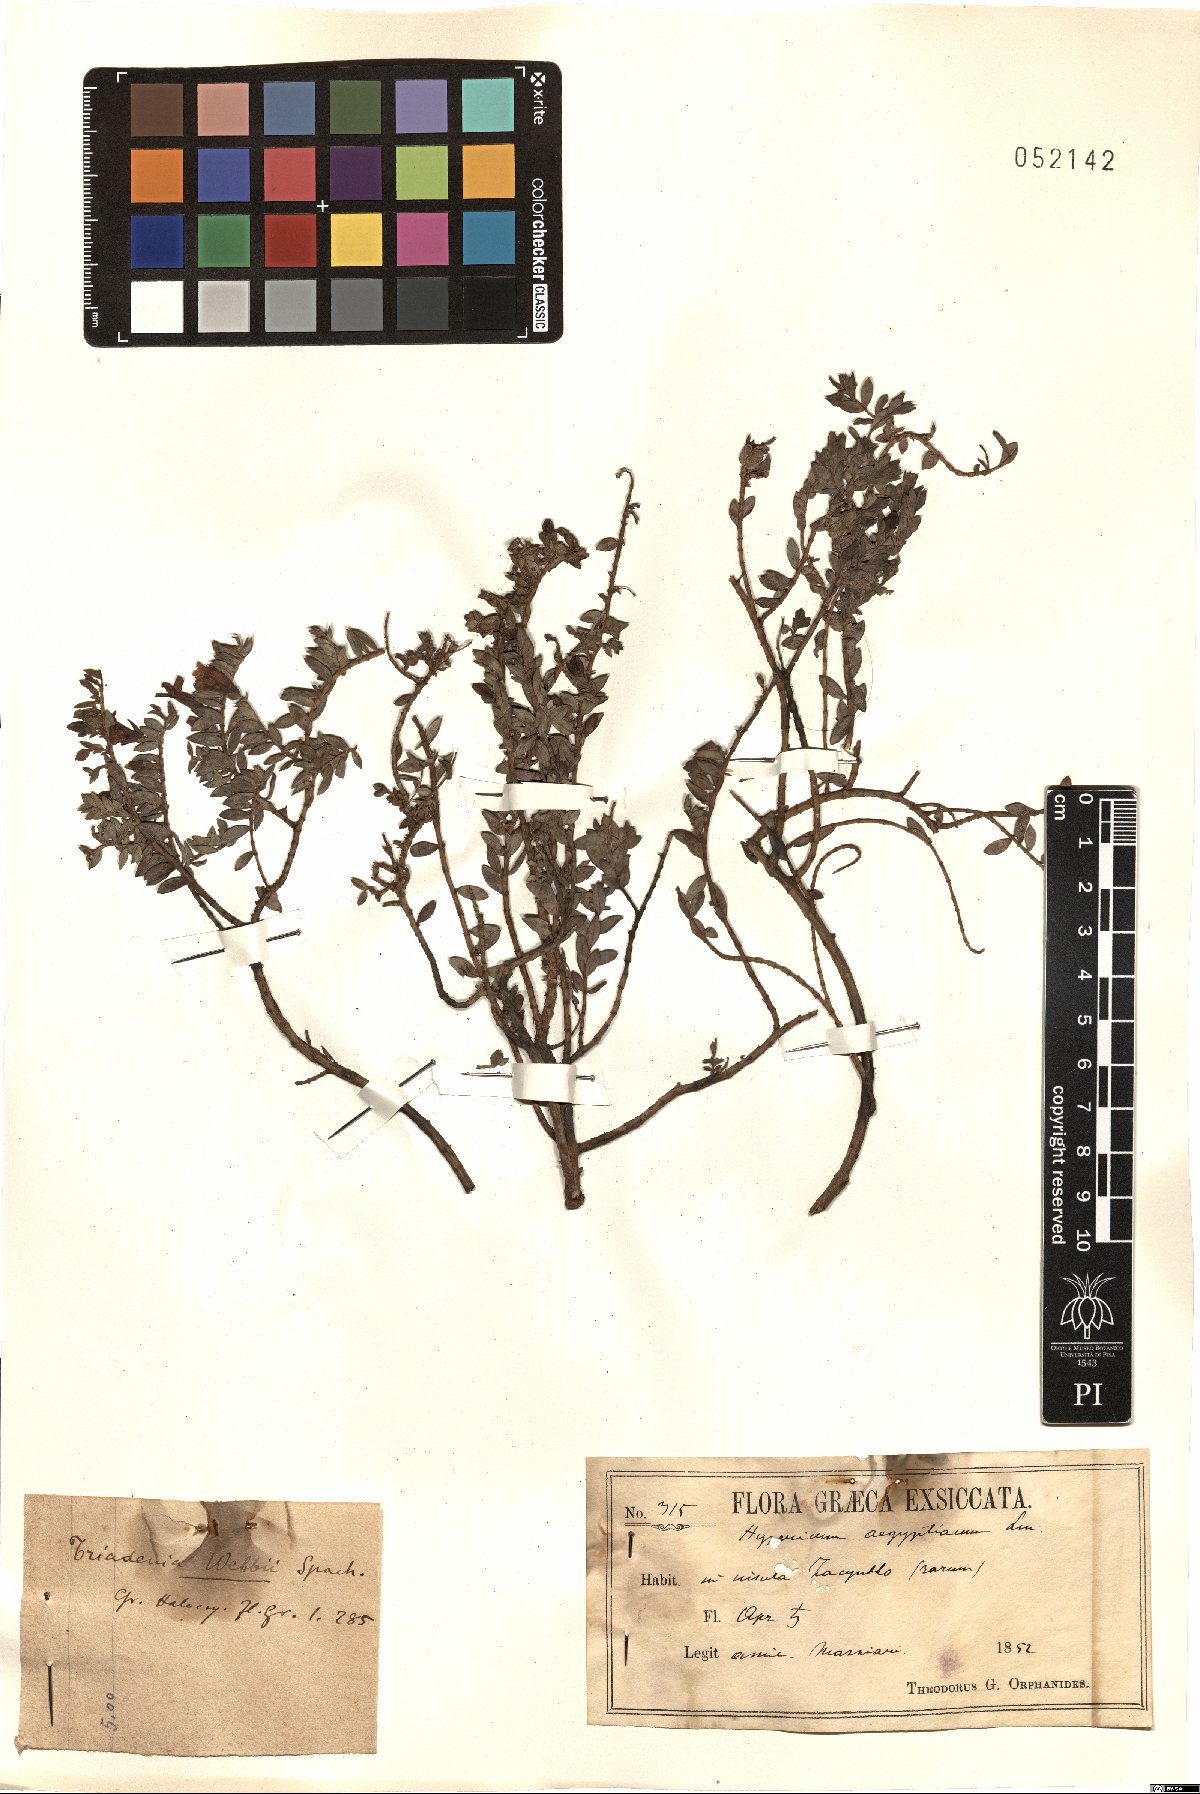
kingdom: Plantae
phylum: Tracheophyta
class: Magnoliopsida
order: Malpighiales
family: Hypericaceae
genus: Hypericum
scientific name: Hypericum aegypticum
